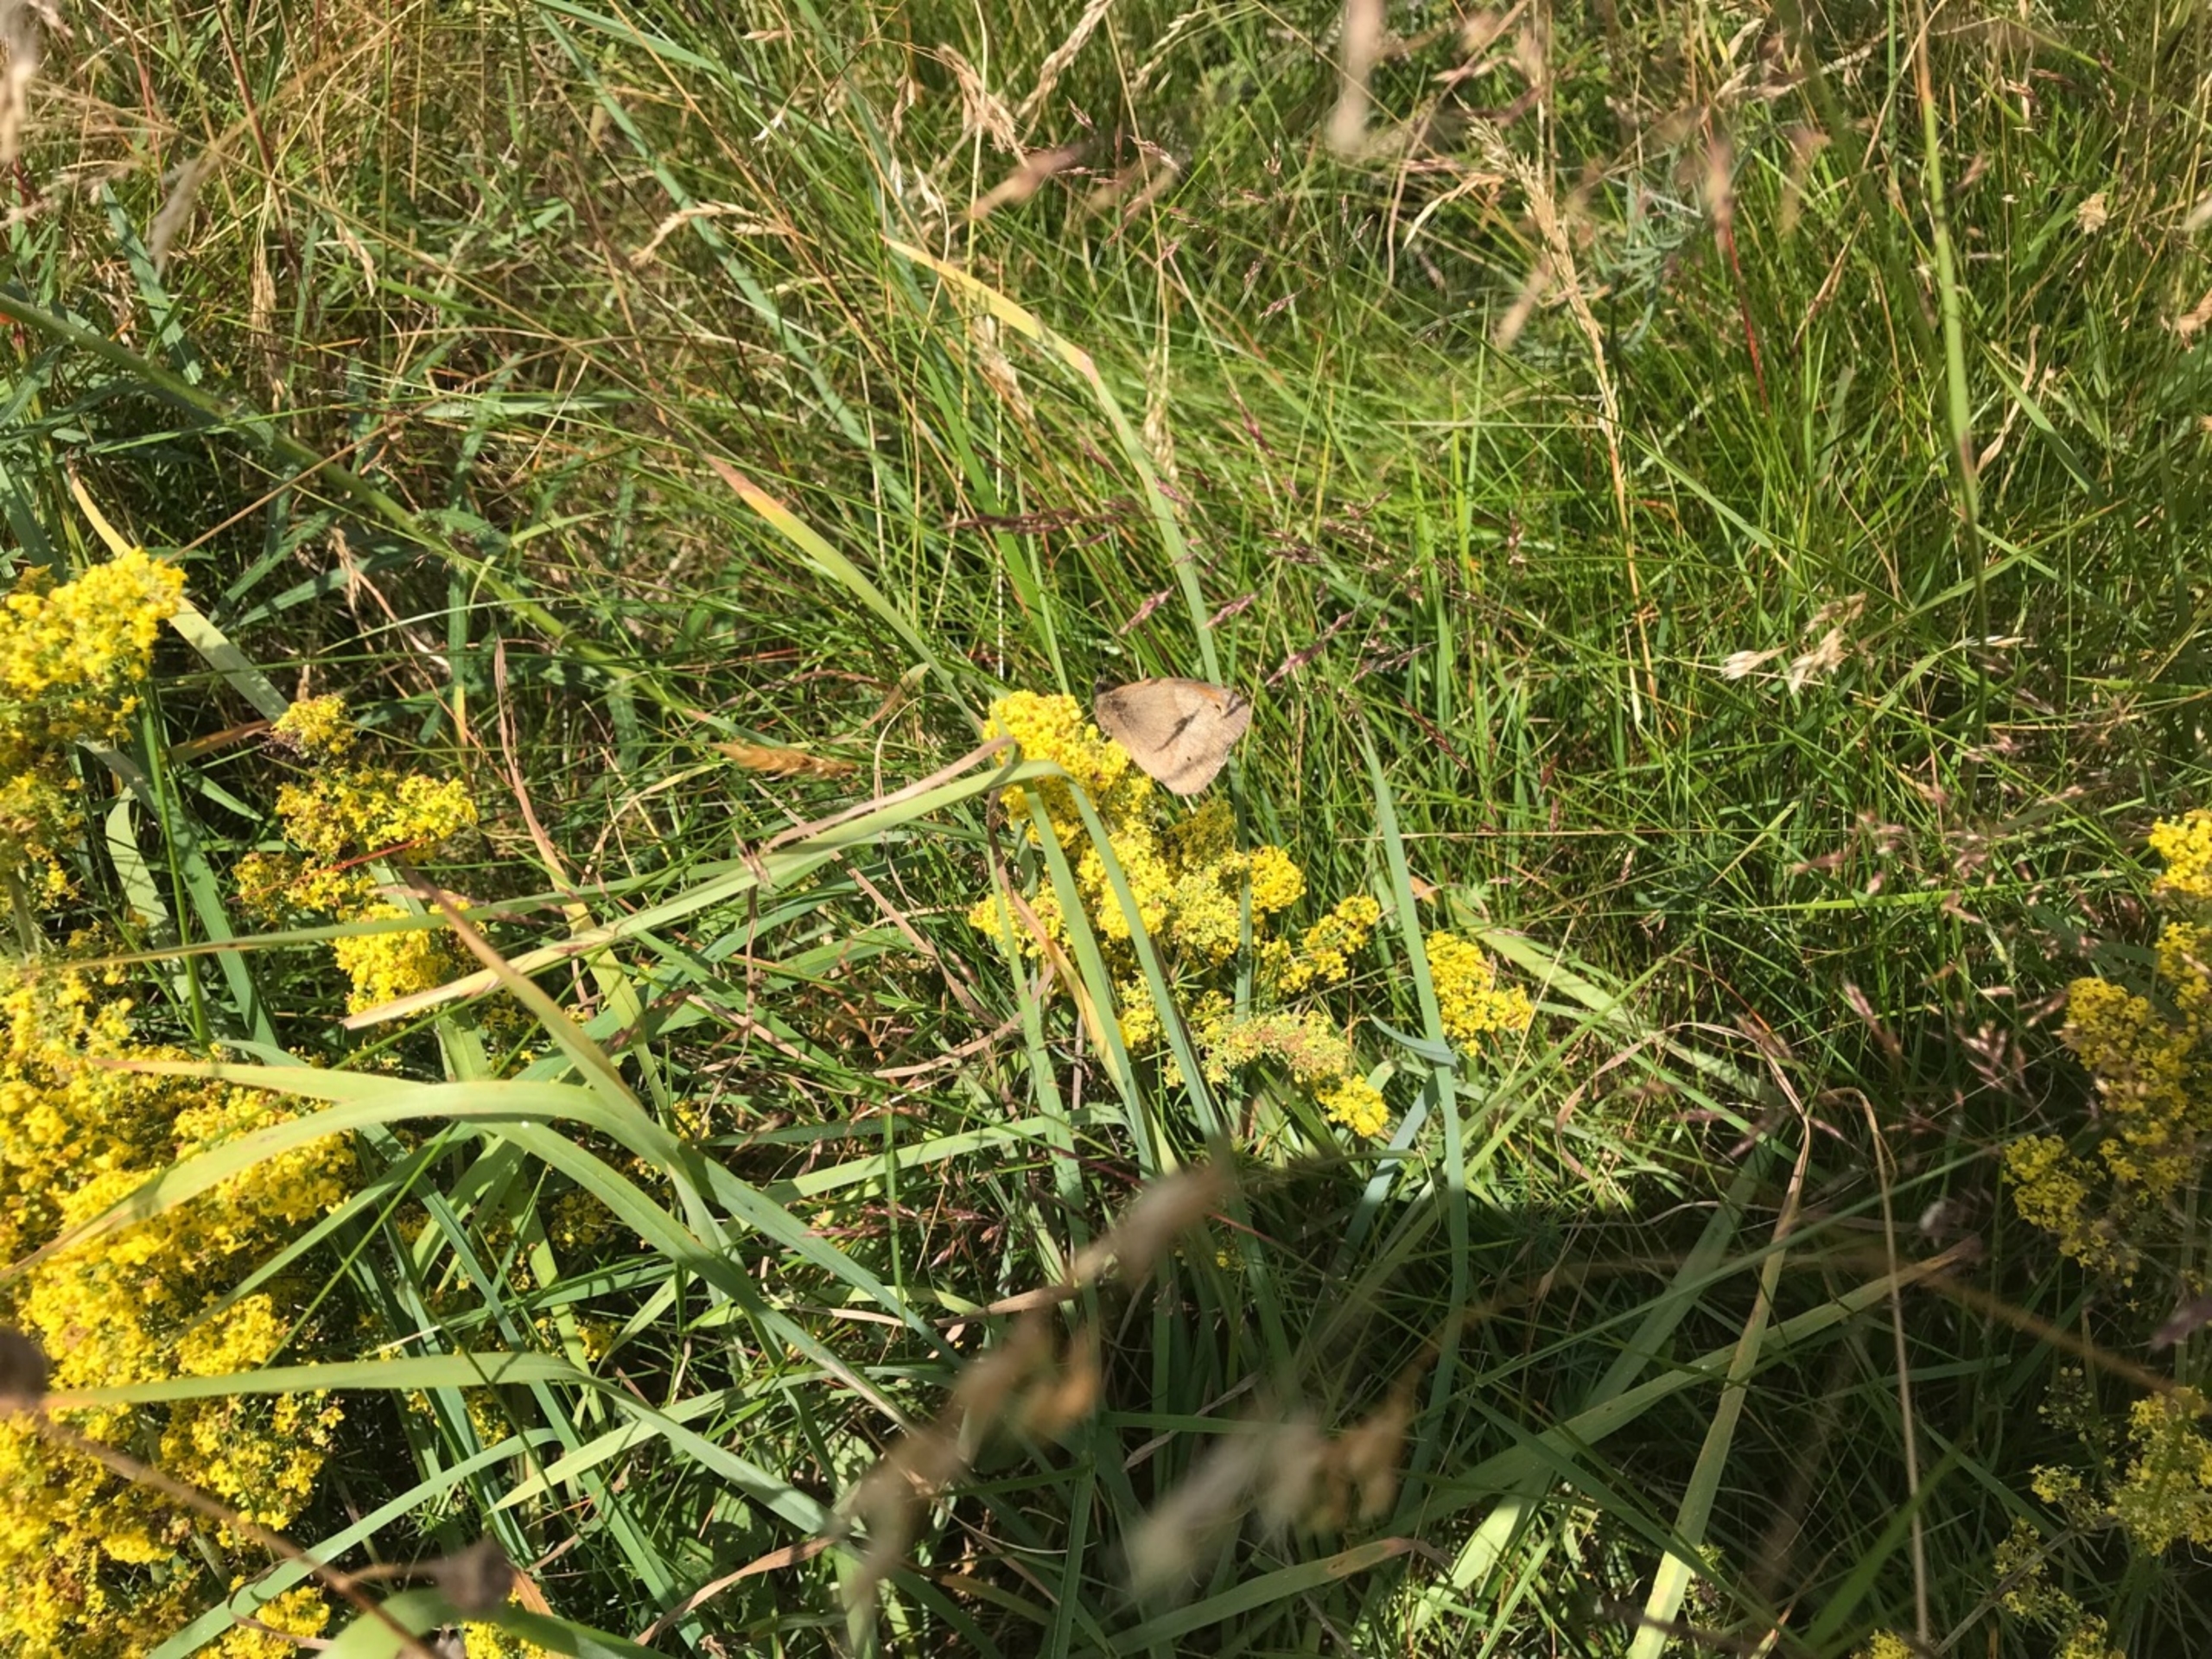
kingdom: Animalia
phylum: Arthropoda
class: Insecta
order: Lepidoptera
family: Nymphalidae
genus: Maniola
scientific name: Maniola jurtina
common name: Græsrandøje
